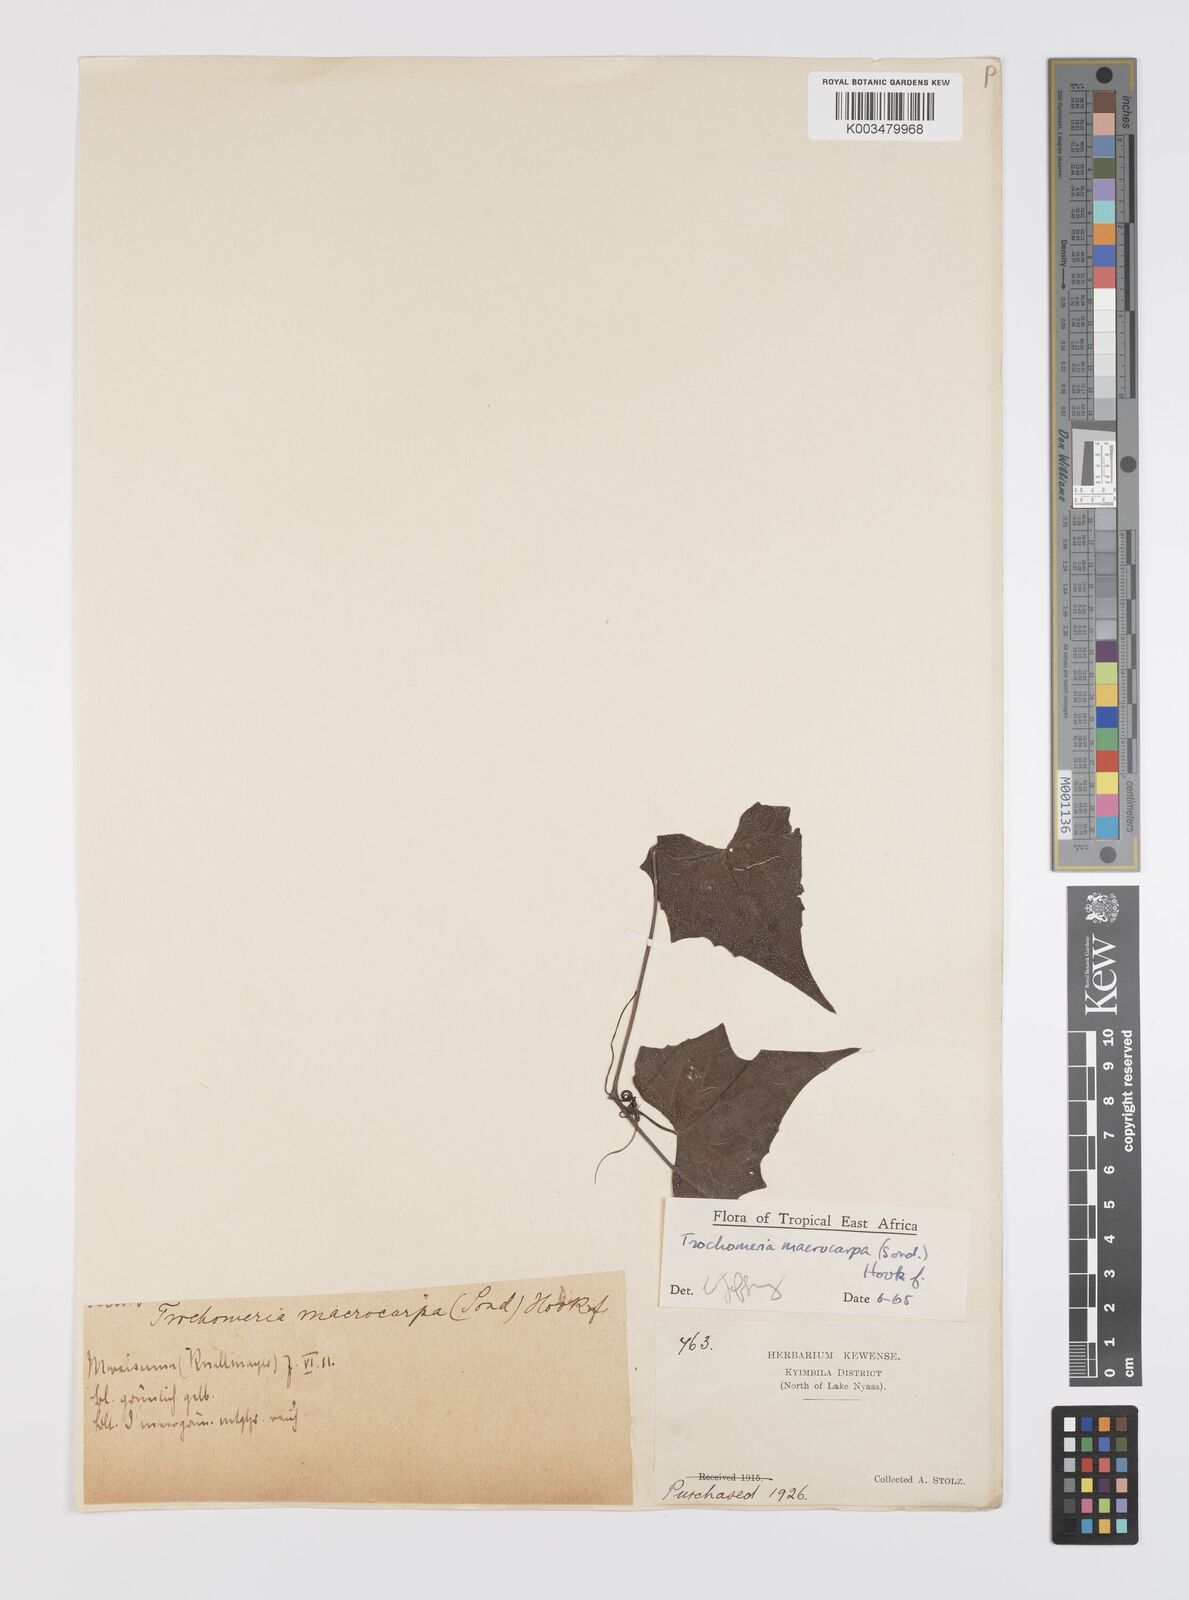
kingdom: Plantae
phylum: Tracheophyta
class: Magnoliopsida
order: Cucurbitales
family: Cucurbitaceae
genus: Trochomeria
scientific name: Trochomeria macrocarpa
